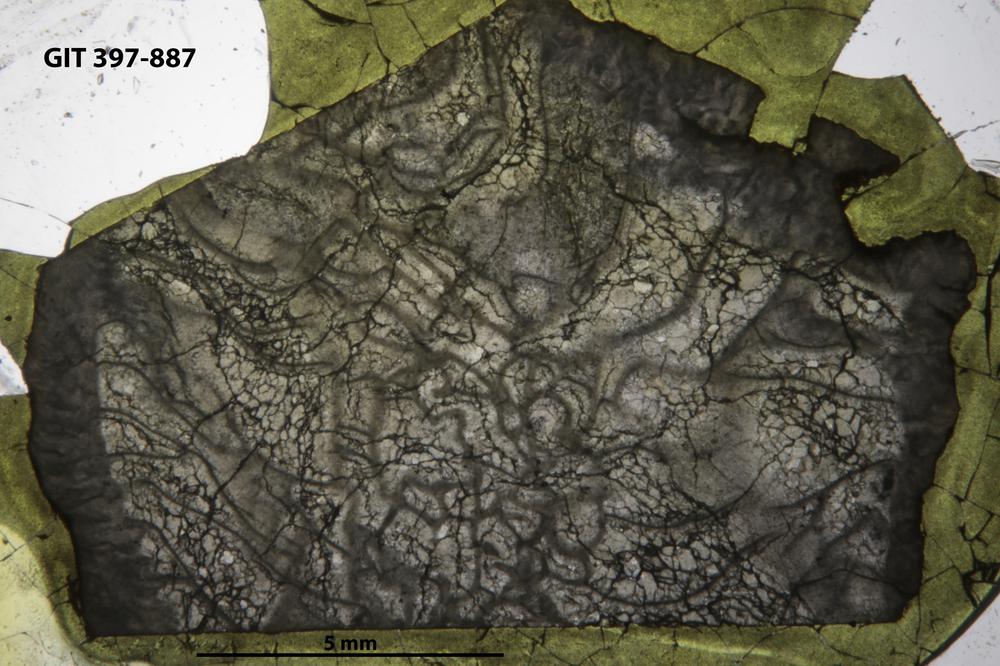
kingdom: Animalia
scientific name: Animalia
